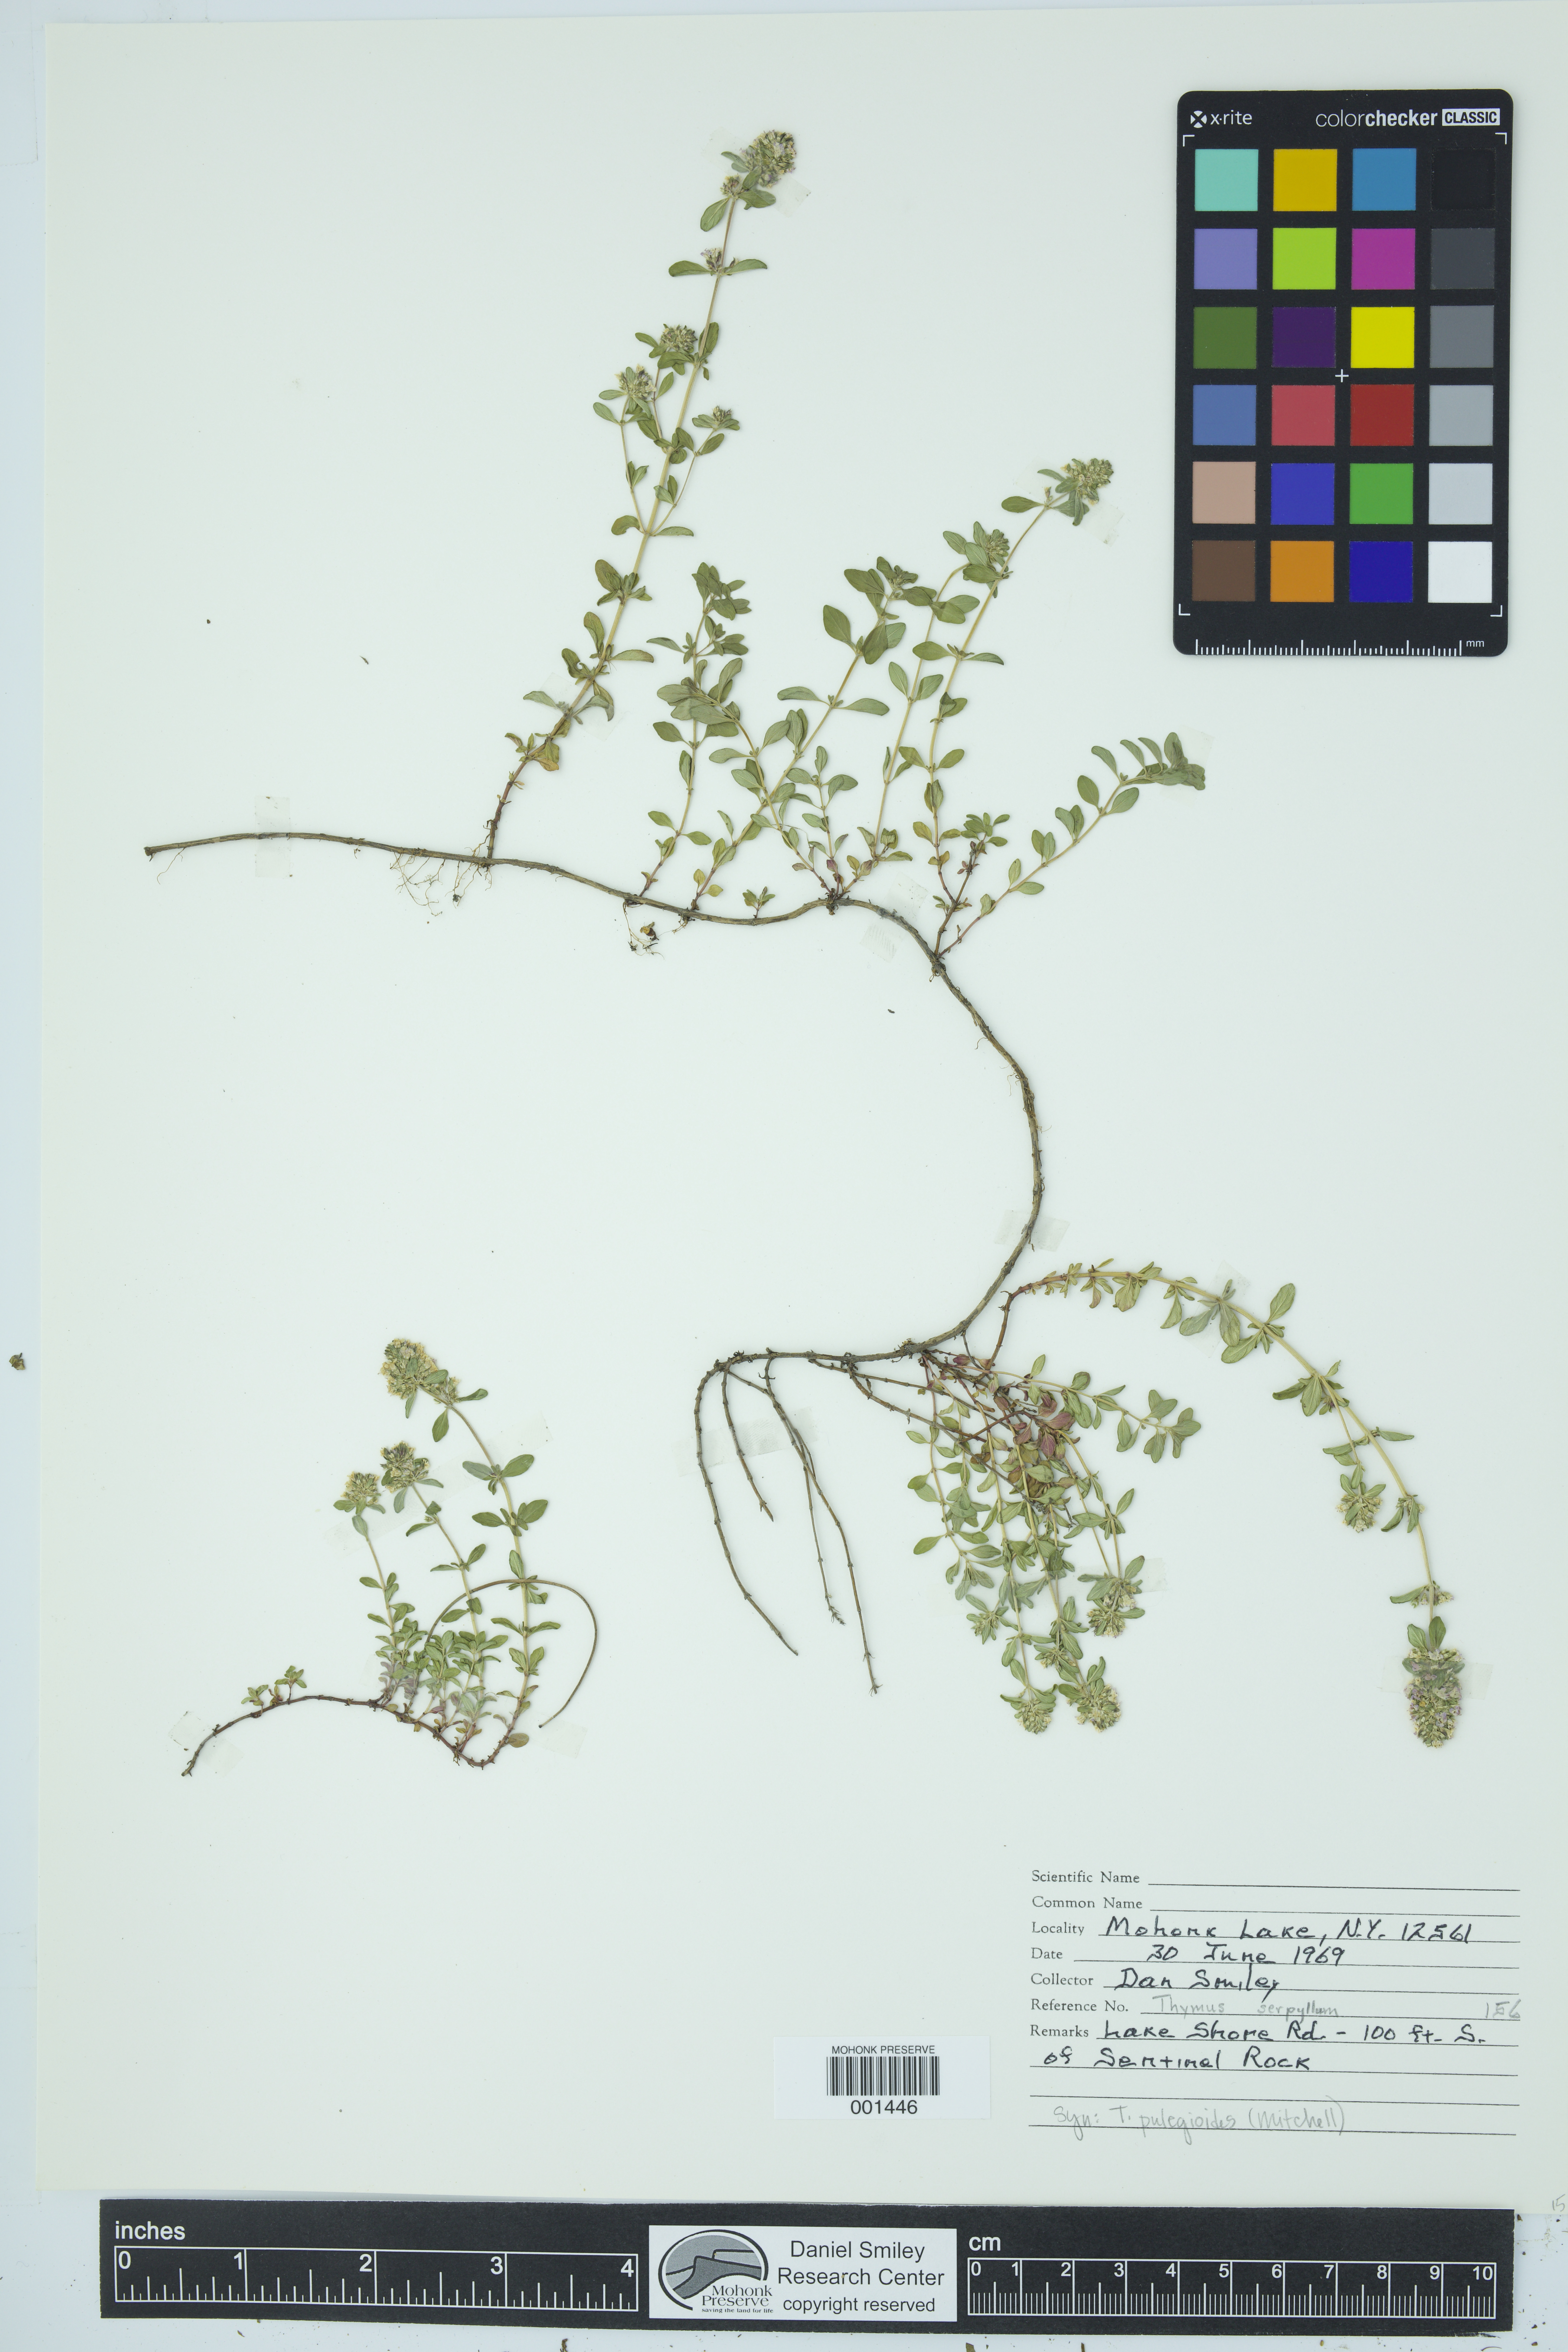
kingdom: Plantae
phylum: Tracheophyta
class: Magnoliopsida
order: Lamiales
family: Lamiaceae
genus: Thymus
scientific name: Thymus pulegioides
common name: Large thyme
